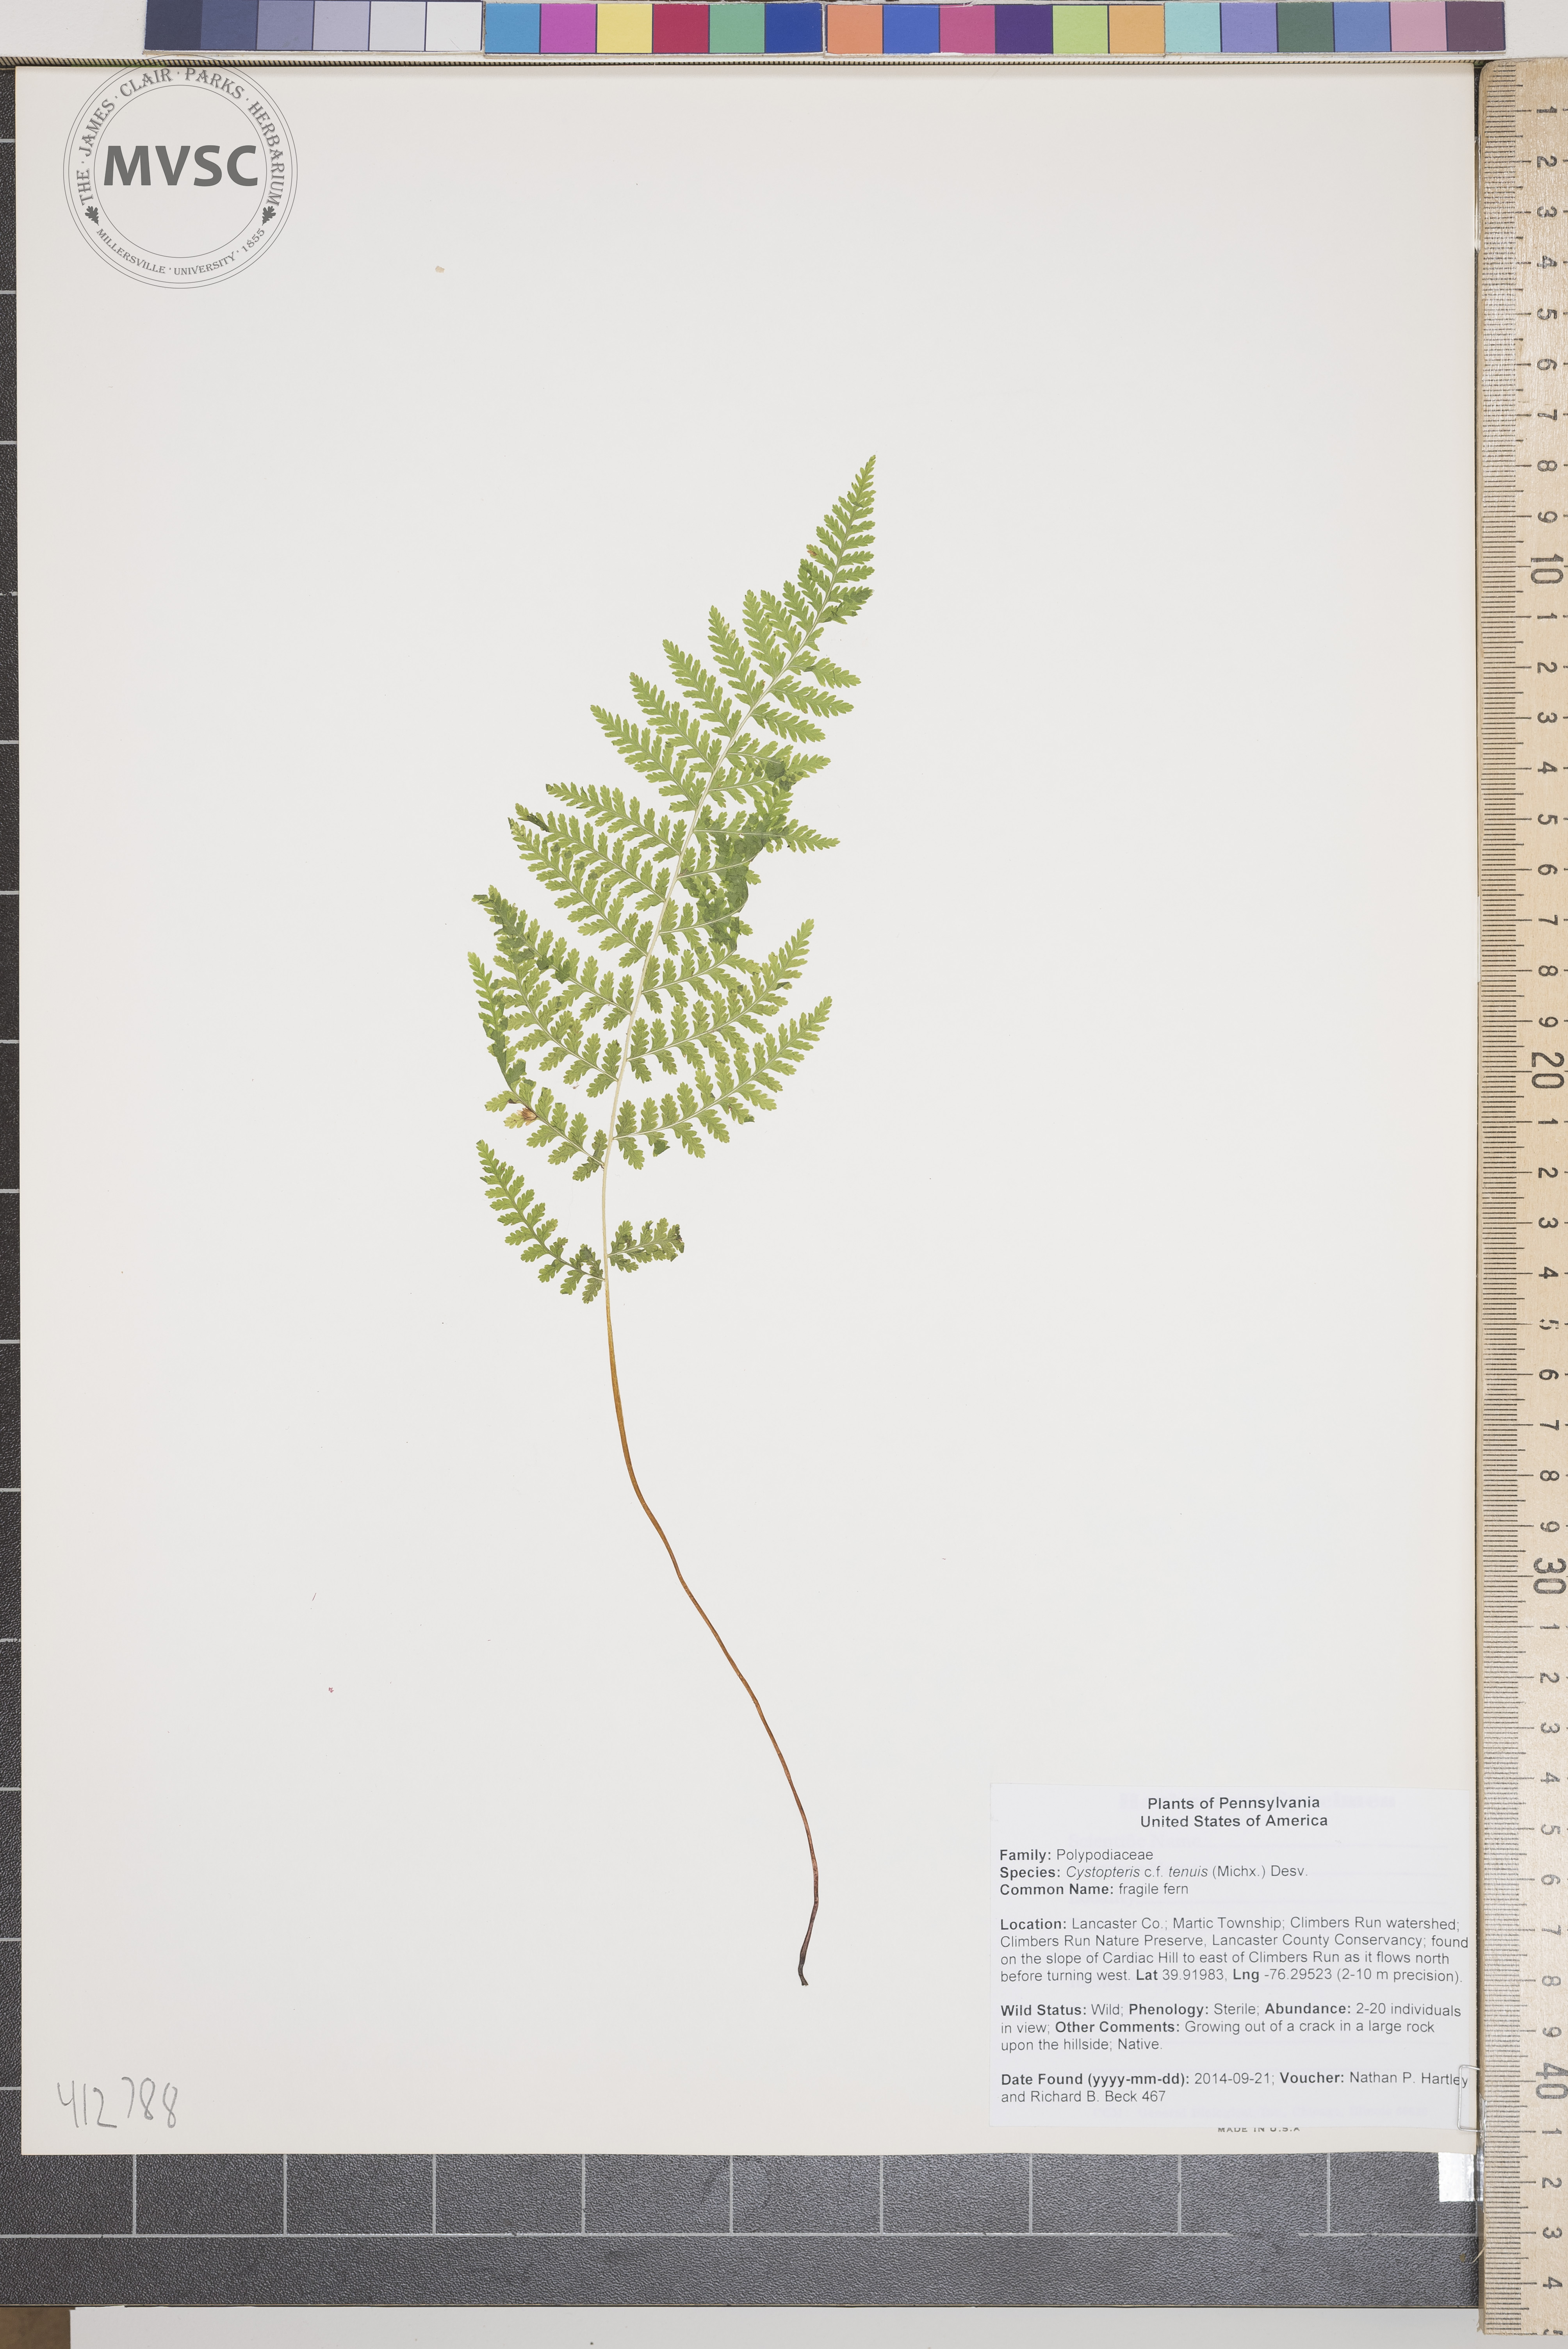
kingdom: Plantae
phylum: Tracheophyta
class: Polypodiopsida
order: Polypodiales
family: Cystopteridaceae
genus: Cystopteris
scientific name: Cystopteris tenuis
